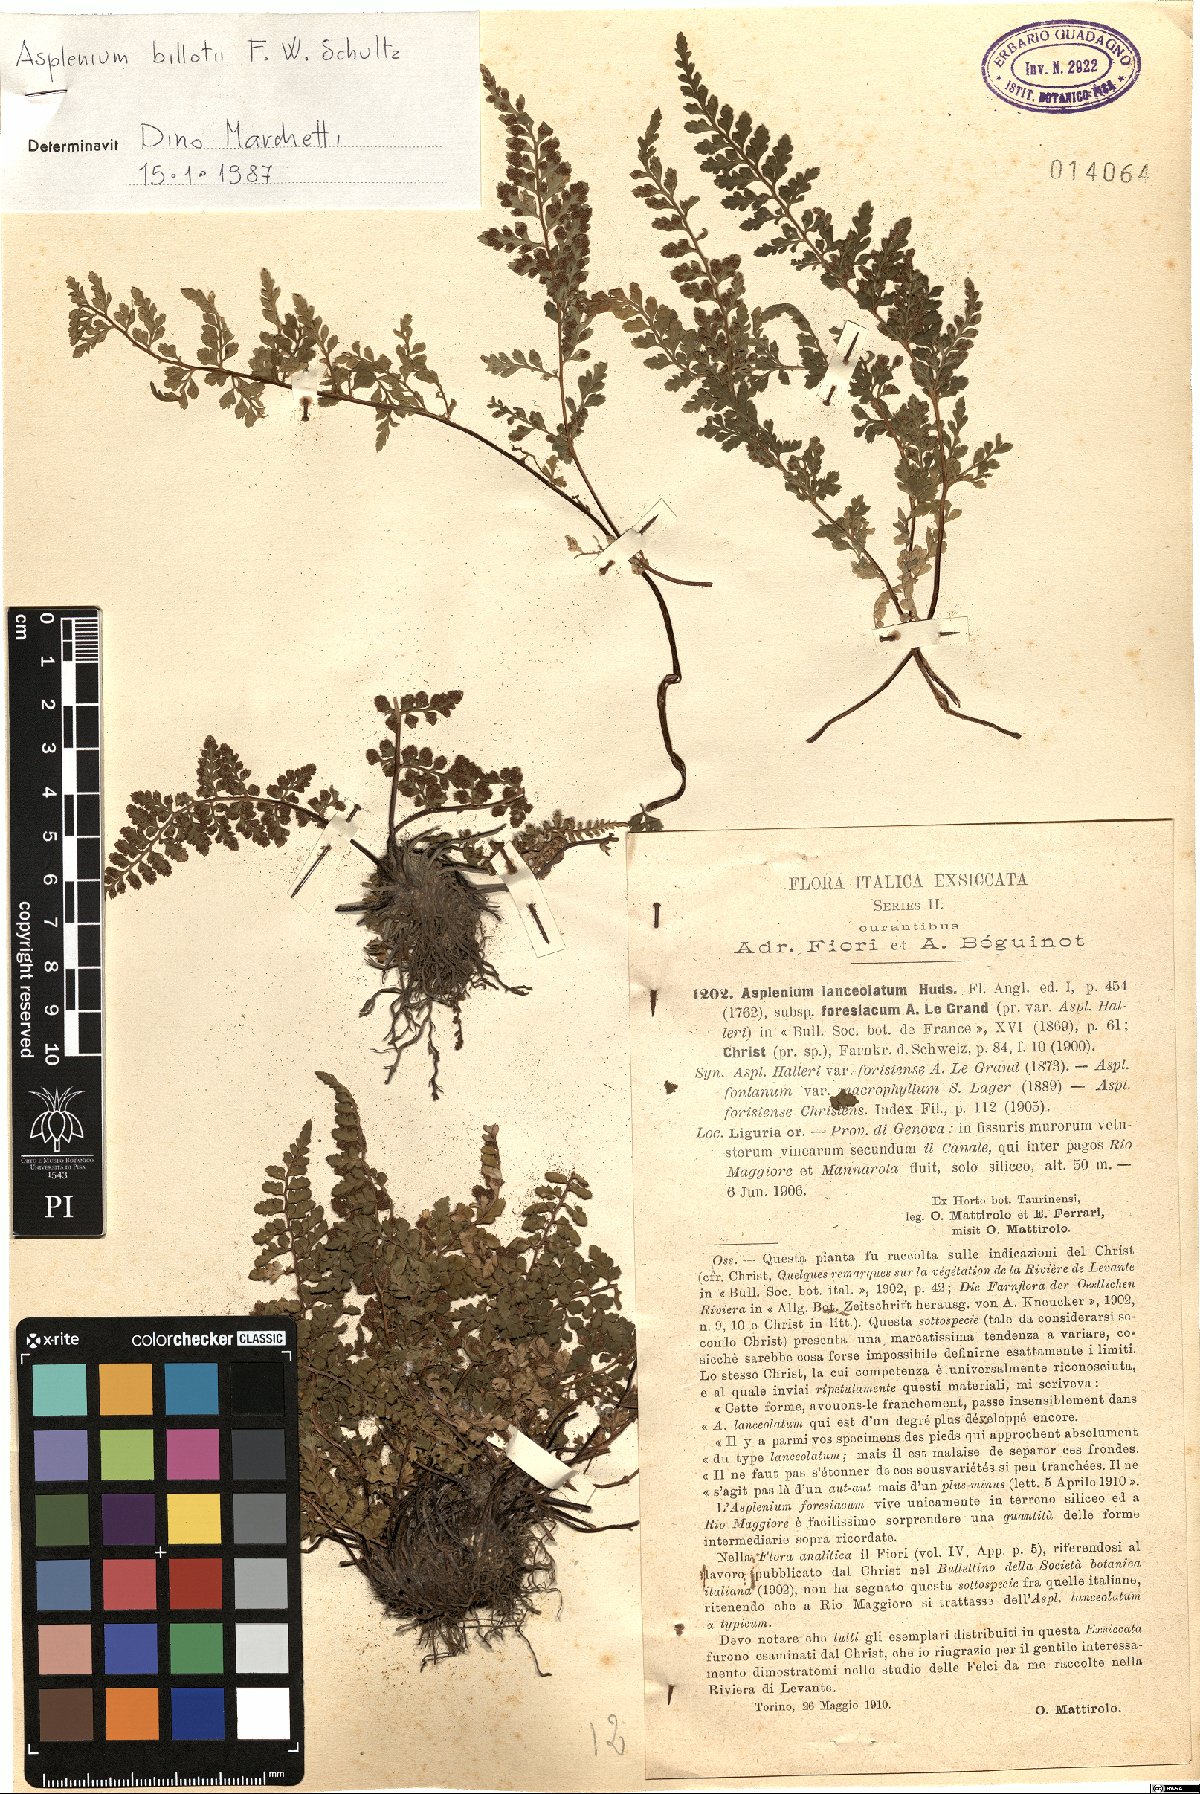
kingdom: Plantae
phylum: Tracheophyta
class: Polypodiopsida
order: Polypodiales
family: Aspleniaceae
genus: Asplenium
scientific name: Asplenium obovatum
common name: Lanceolate spleenwort
